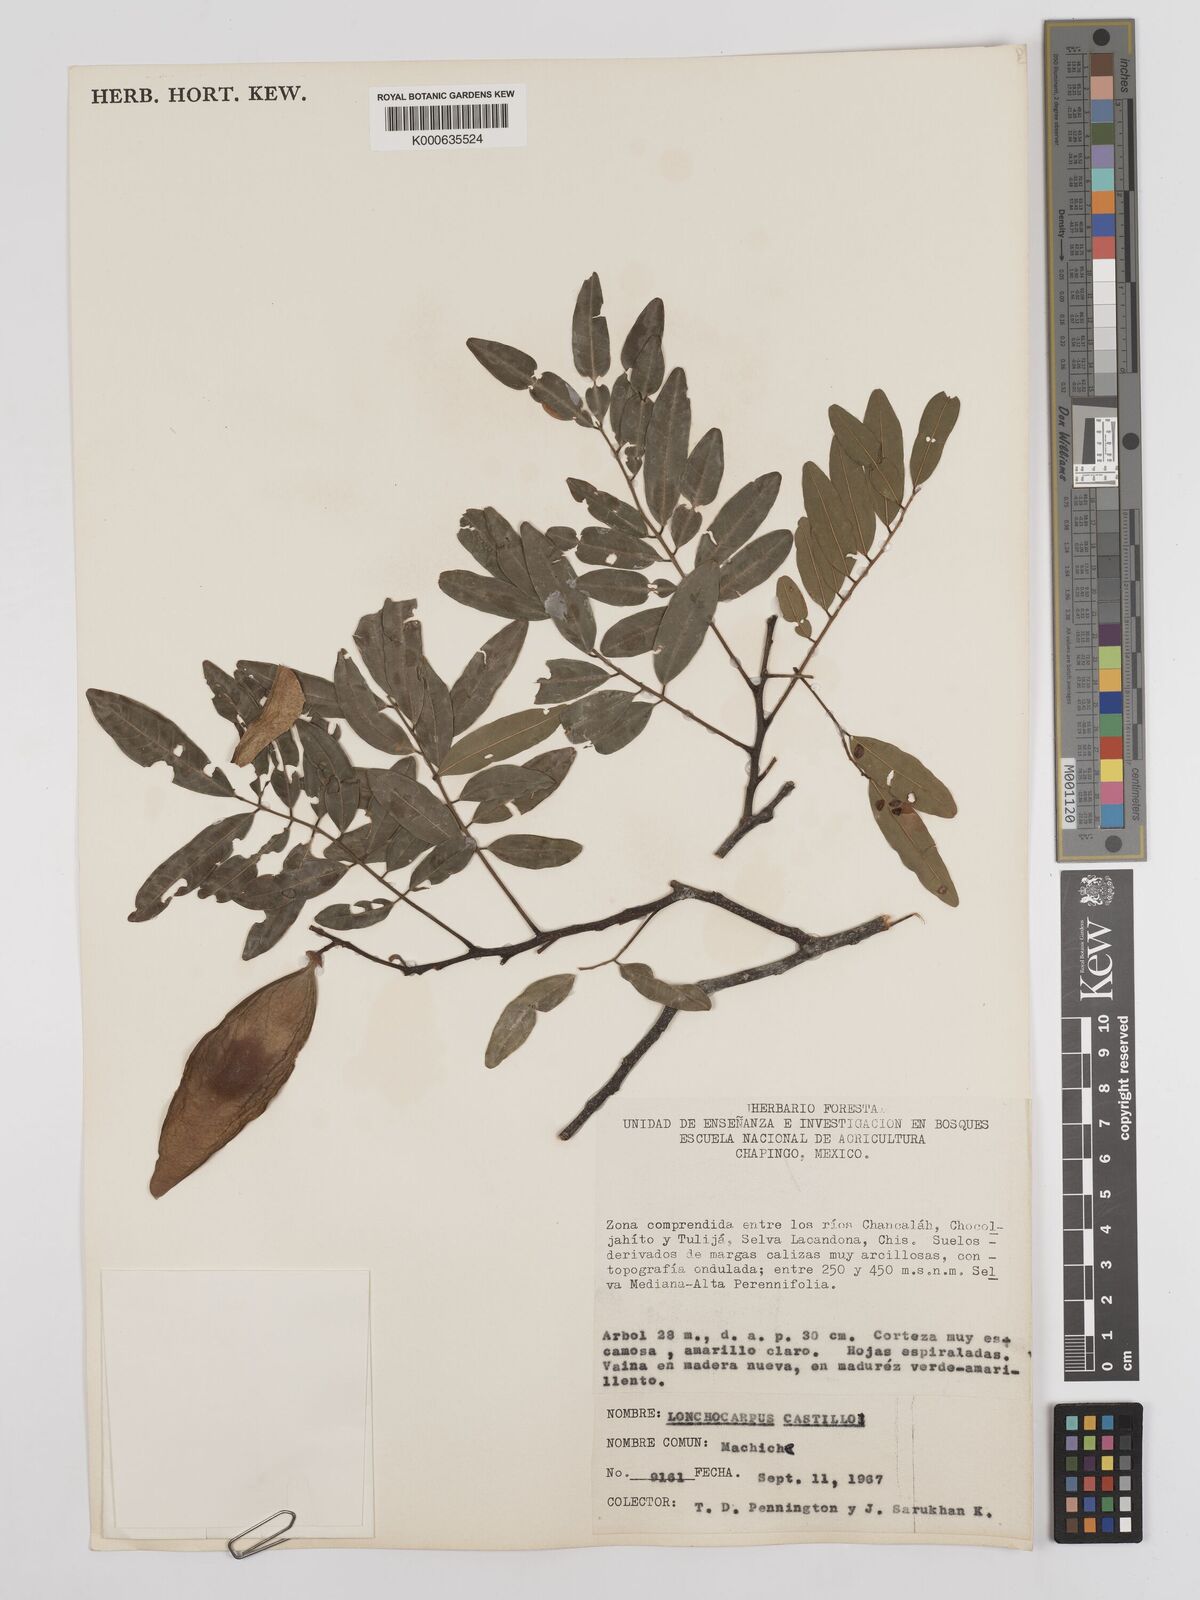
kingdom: Plantae
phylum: Tracheophyta
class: Magnoliopsida
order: Fabales
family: Fabaceae
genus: Lonchocarpus
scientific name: Lonchocarpus castilloi
